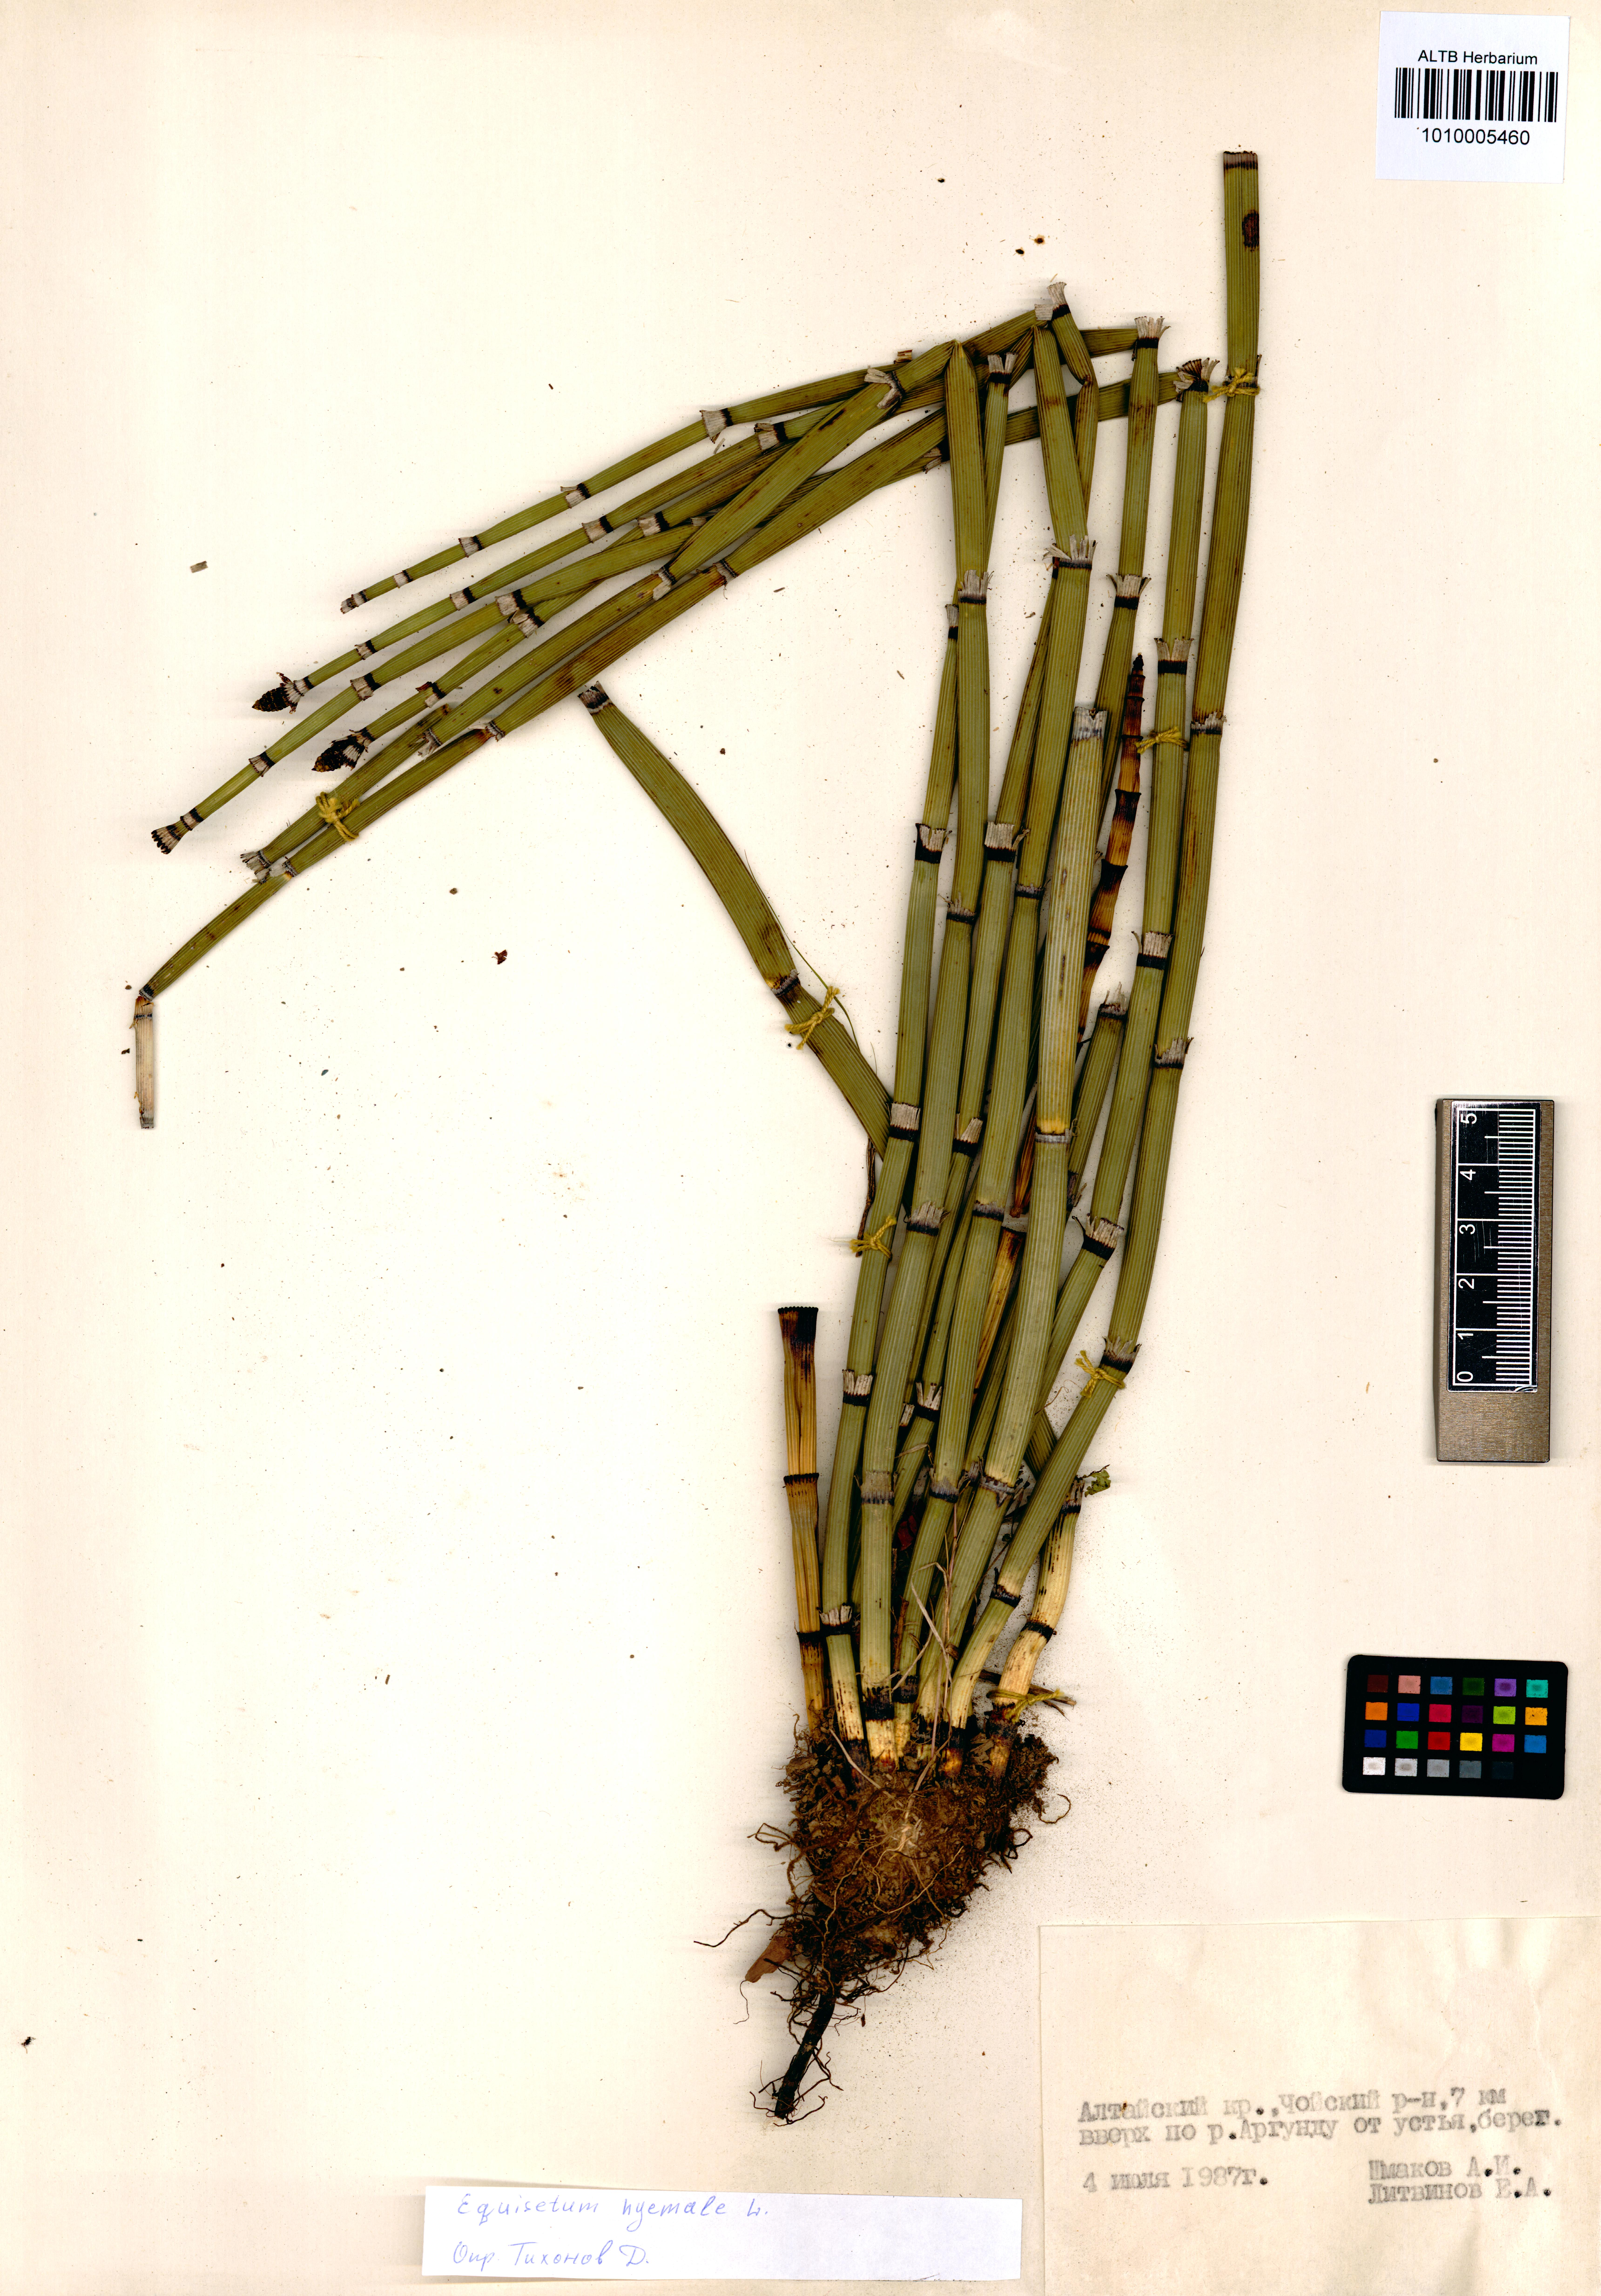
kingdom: Plantae
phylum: Tracheophyta
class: Polypodiopsida
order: Equisetales
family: Equisetaceae
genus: Equisetum
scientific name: Equisetum hyemale
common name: Rough horsetail
